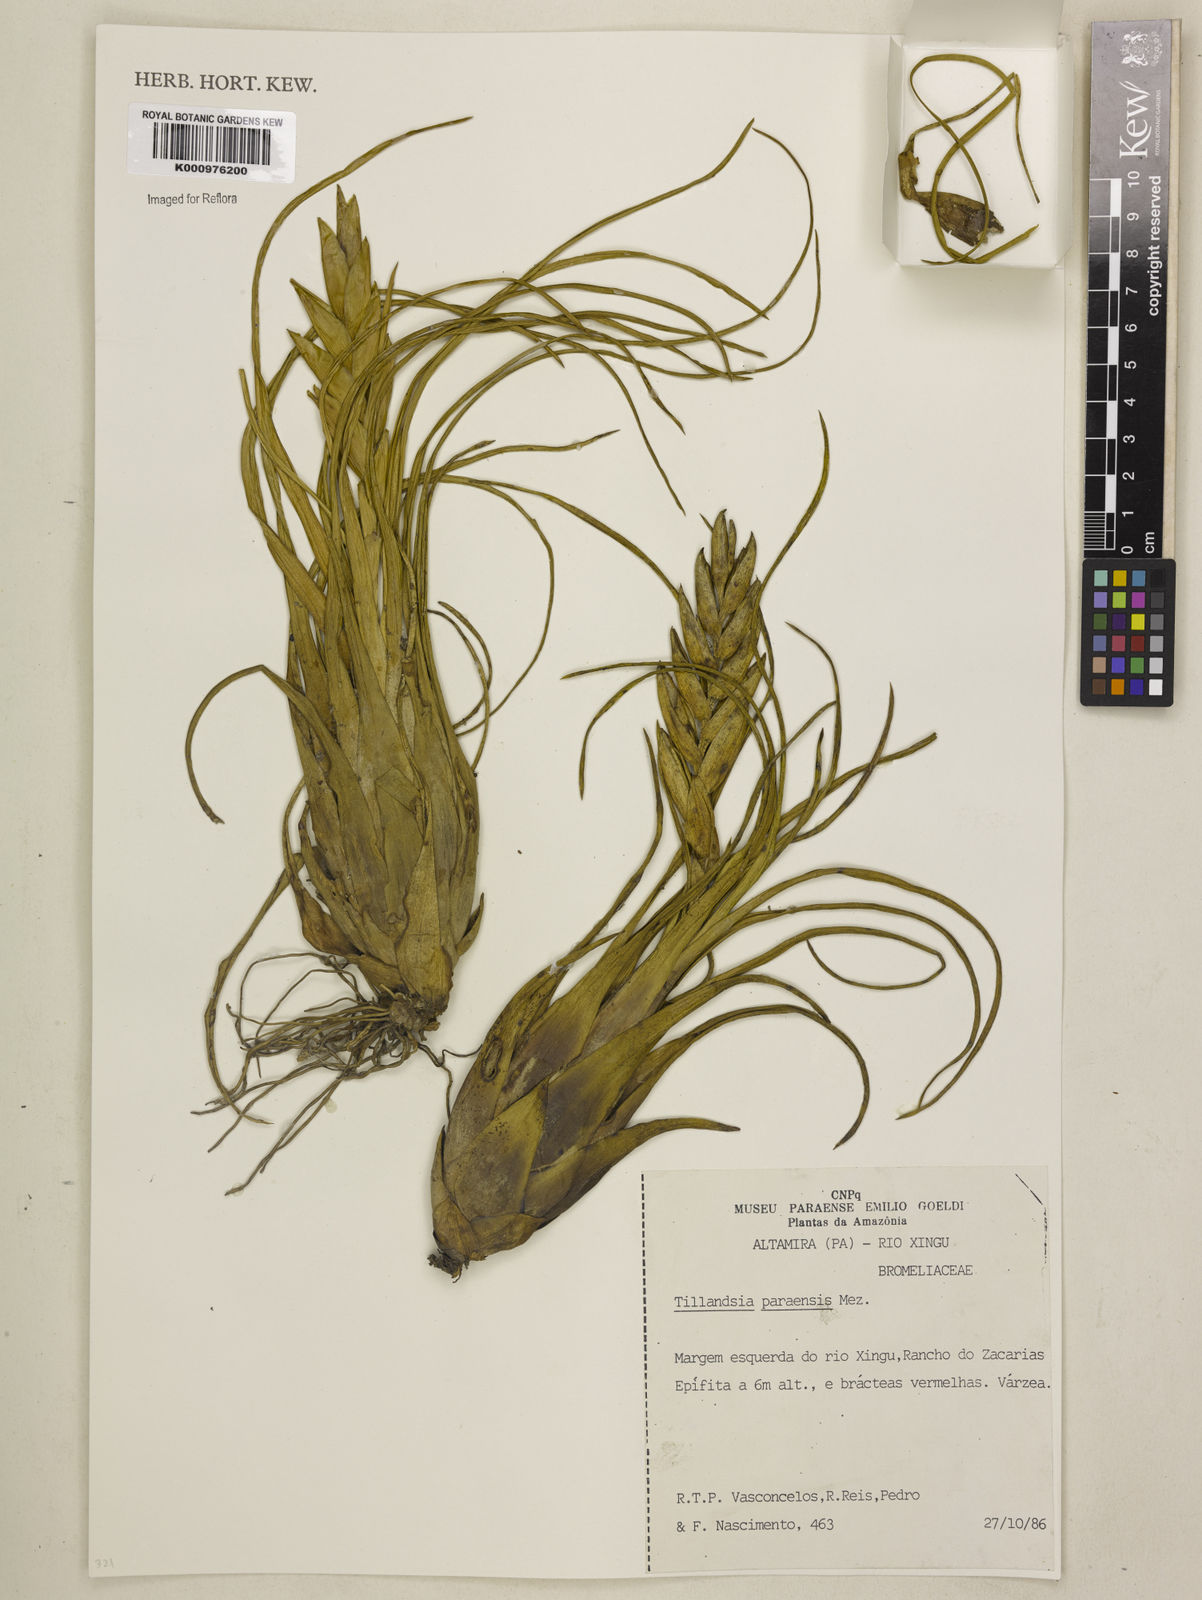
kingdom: Plantae
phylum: Tracheophyta
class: Liliopsida
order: Poales
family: Bromeliaceae
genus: Tillandsia
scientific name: Tillandsia paraensis
